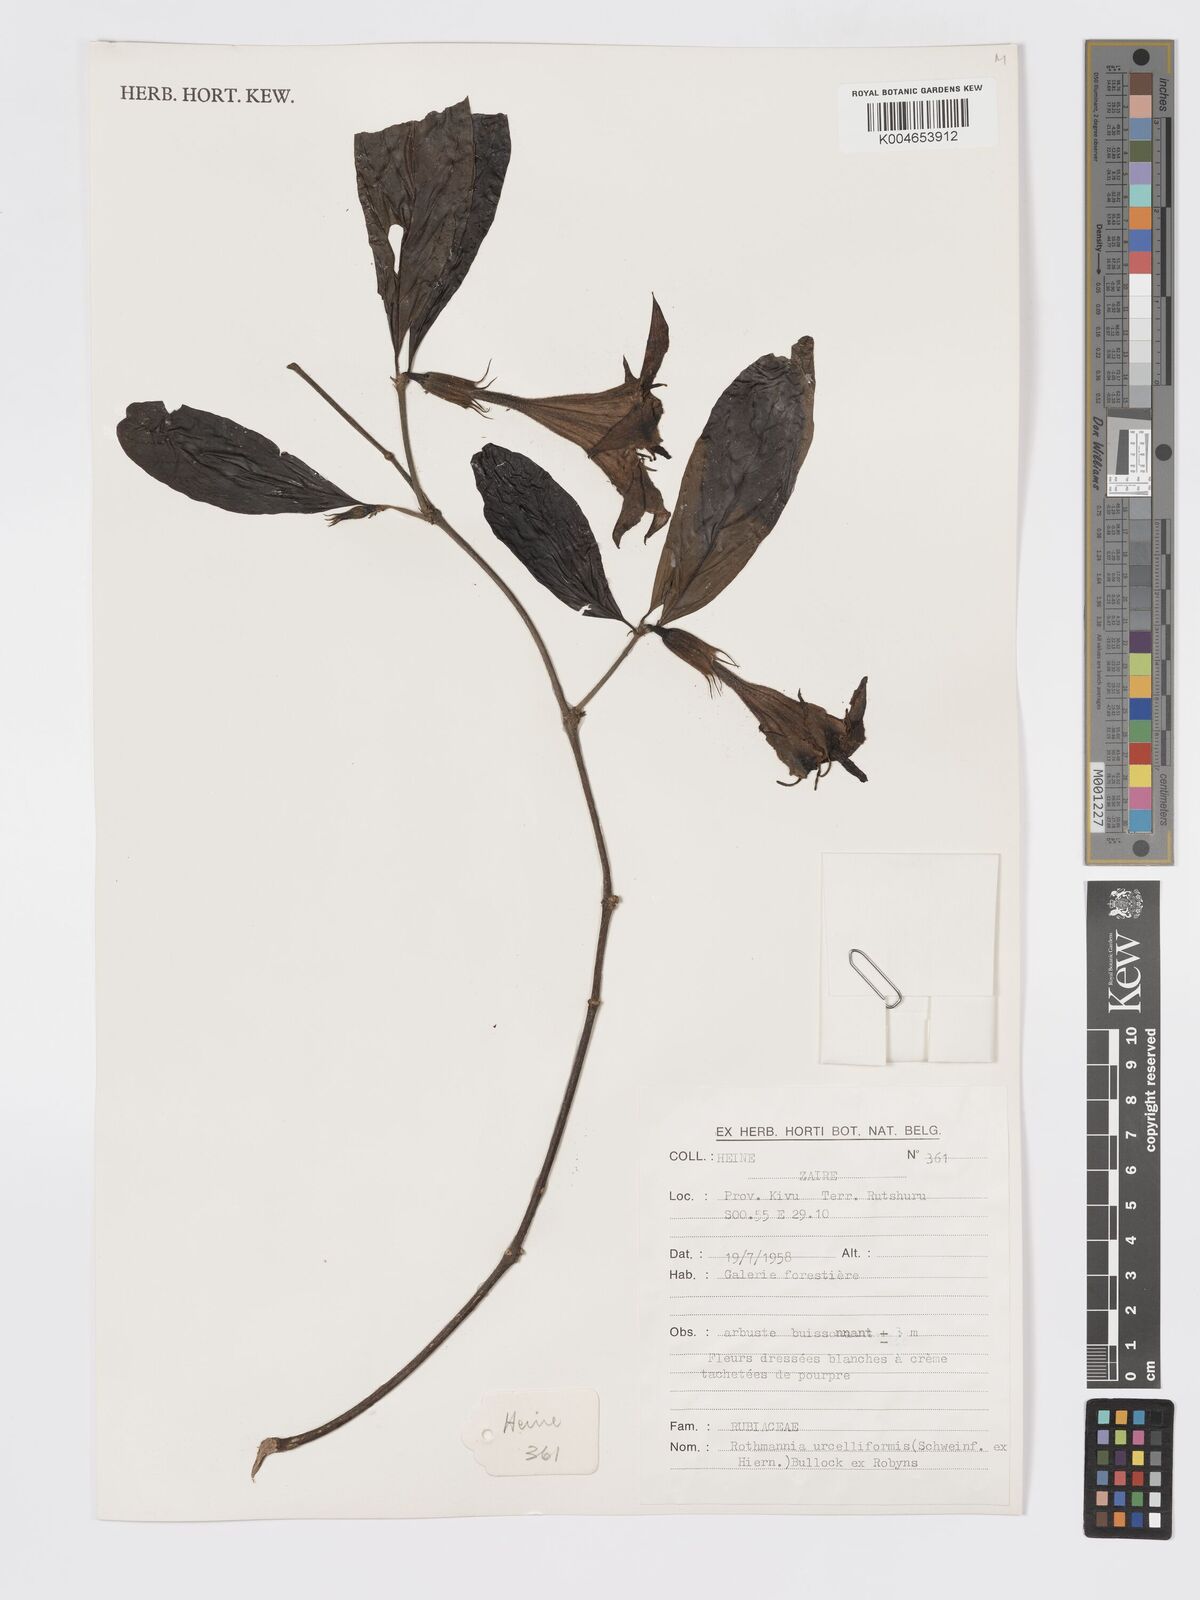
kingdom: Plantae
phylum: Tracheophyta
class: Magnoliopsida
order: Gentianales
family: Rubiaceae
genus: Rothmannia
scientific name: Rothmannia urcelliformis
